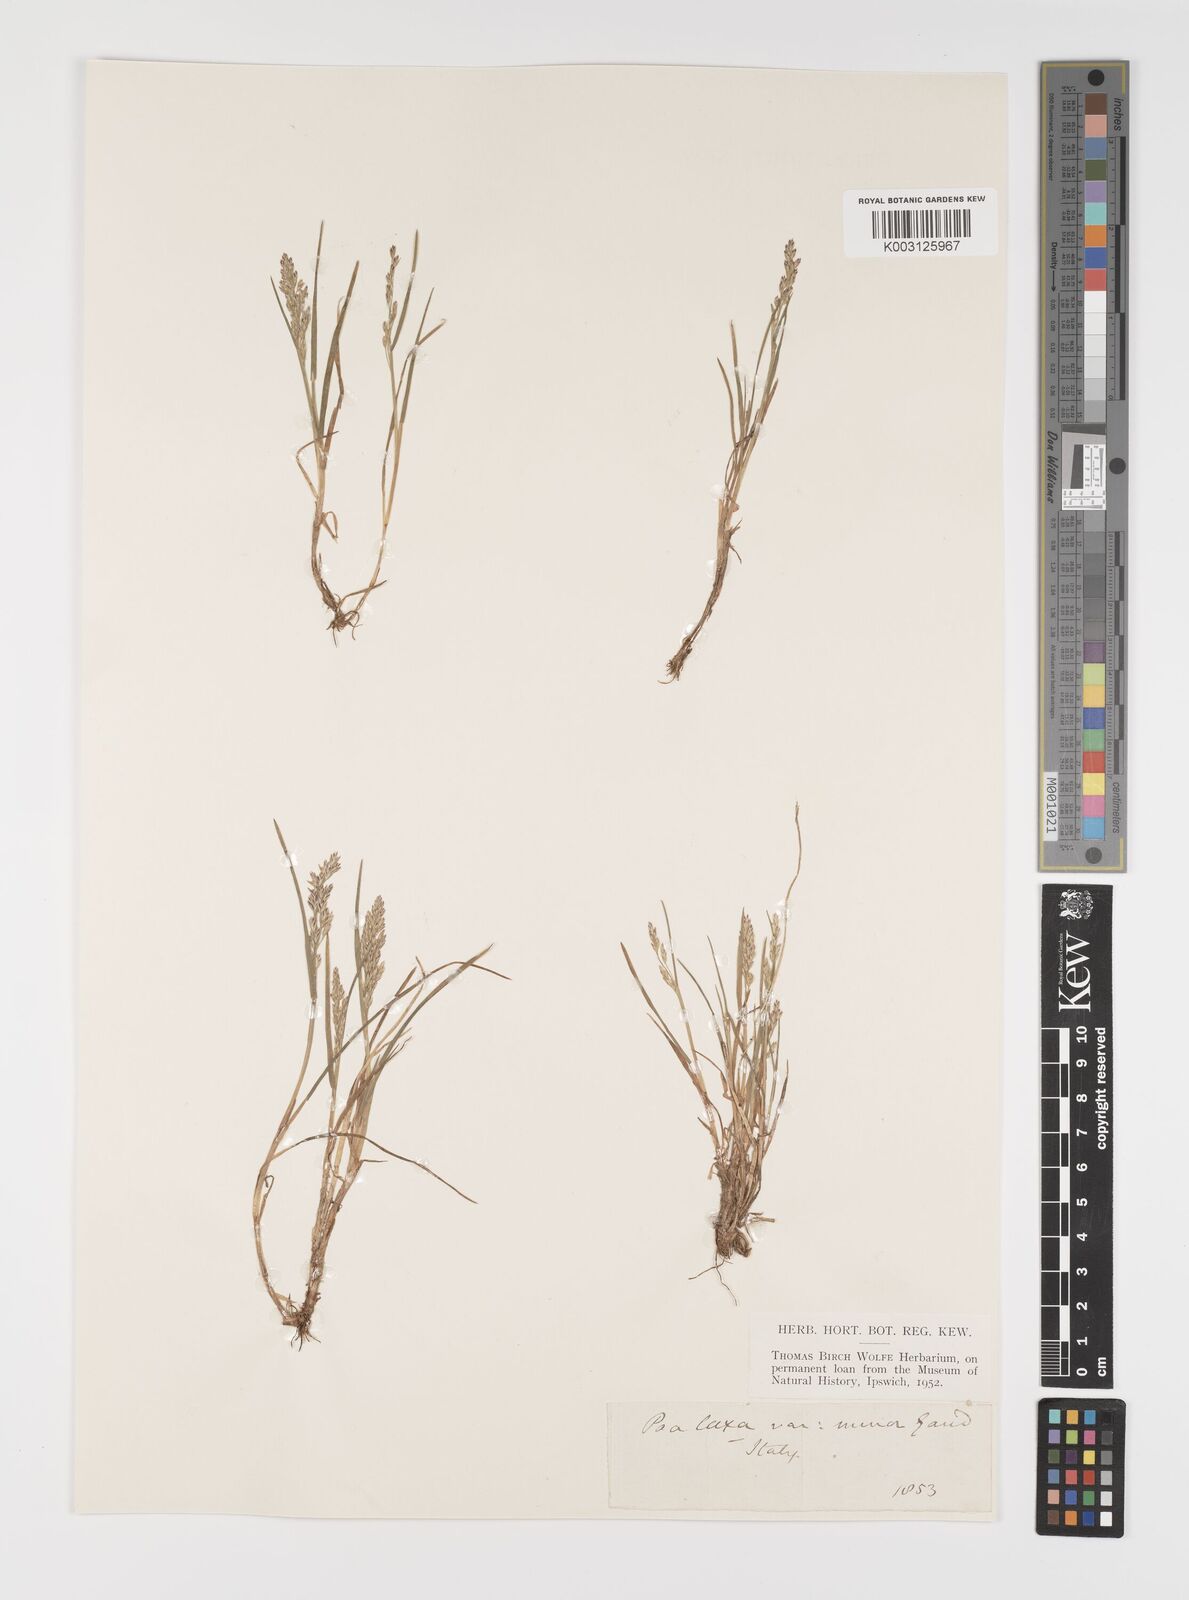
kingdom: Plantae
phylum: Tracheophyta
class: Liliopsida
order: Poales
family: Poaceae
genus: Poa
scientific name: Poa laxa
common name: Lax bluegrass
